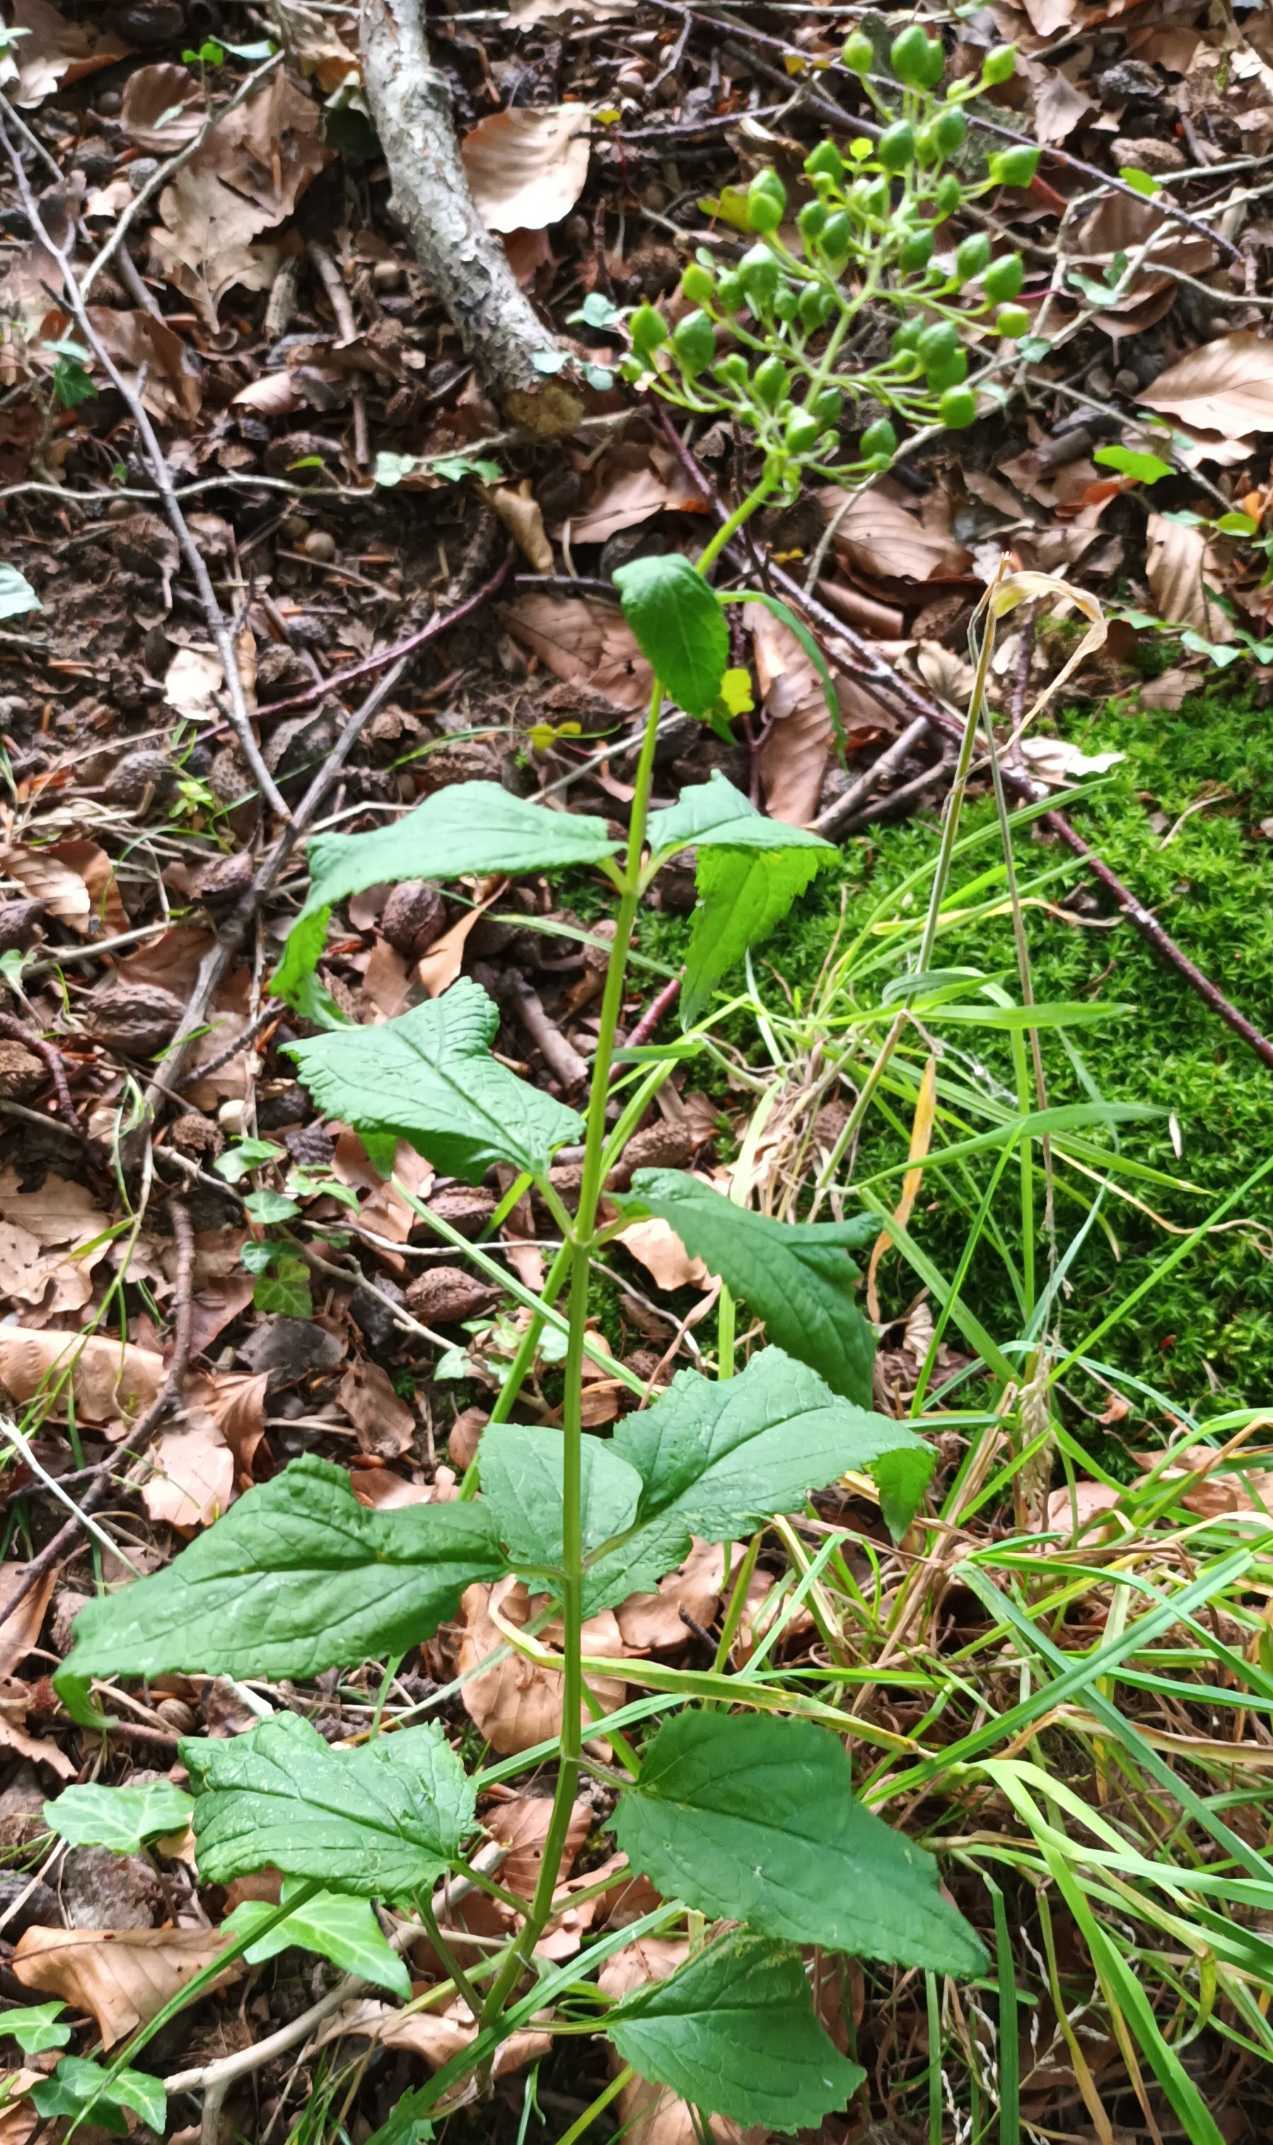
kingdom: Plantae
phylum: Tracheophyta
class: Magnoliopsida
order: Lamiales
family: Scrophulariaceae
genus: Scrophularia
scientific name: Scrophularia nodosa
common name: Knoldet brunrod
